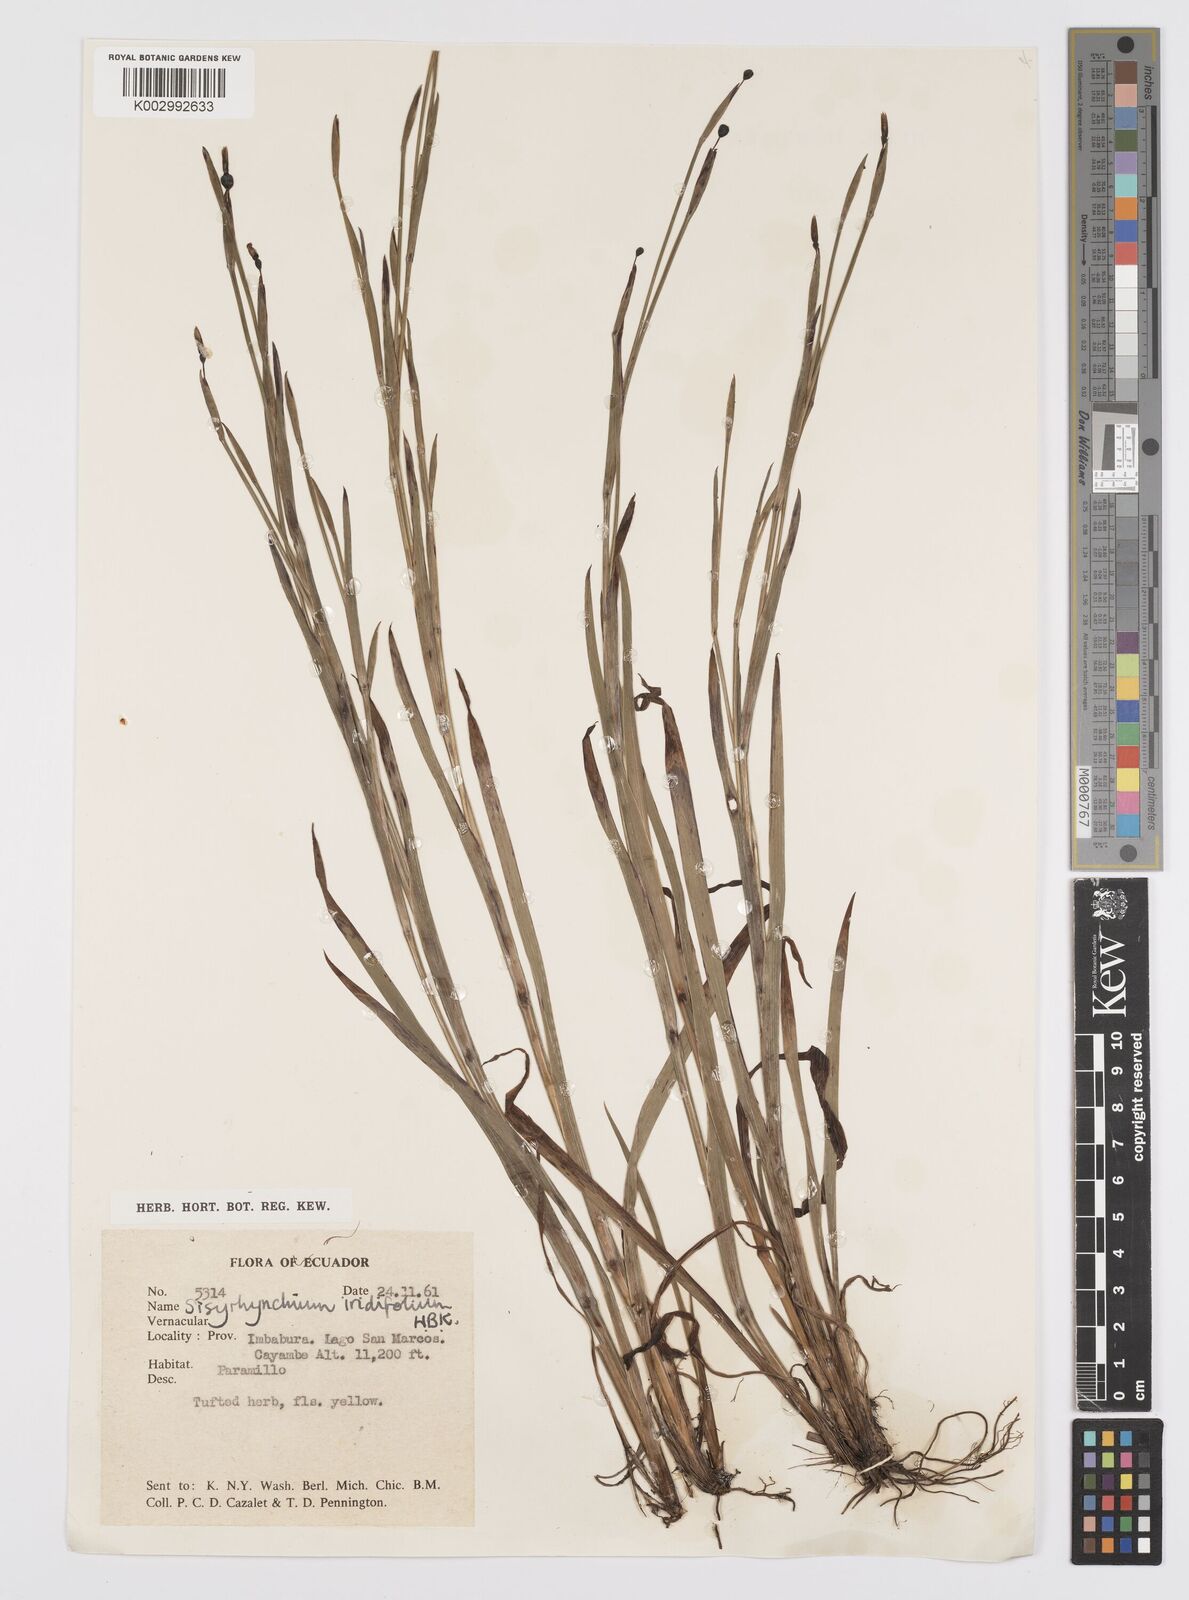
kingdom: Plantae
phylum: Tracheophyta
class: Liliopsida
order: Asparagales
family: Iridaceae
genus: Sisyrinchium
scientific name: Sisyrinchium
